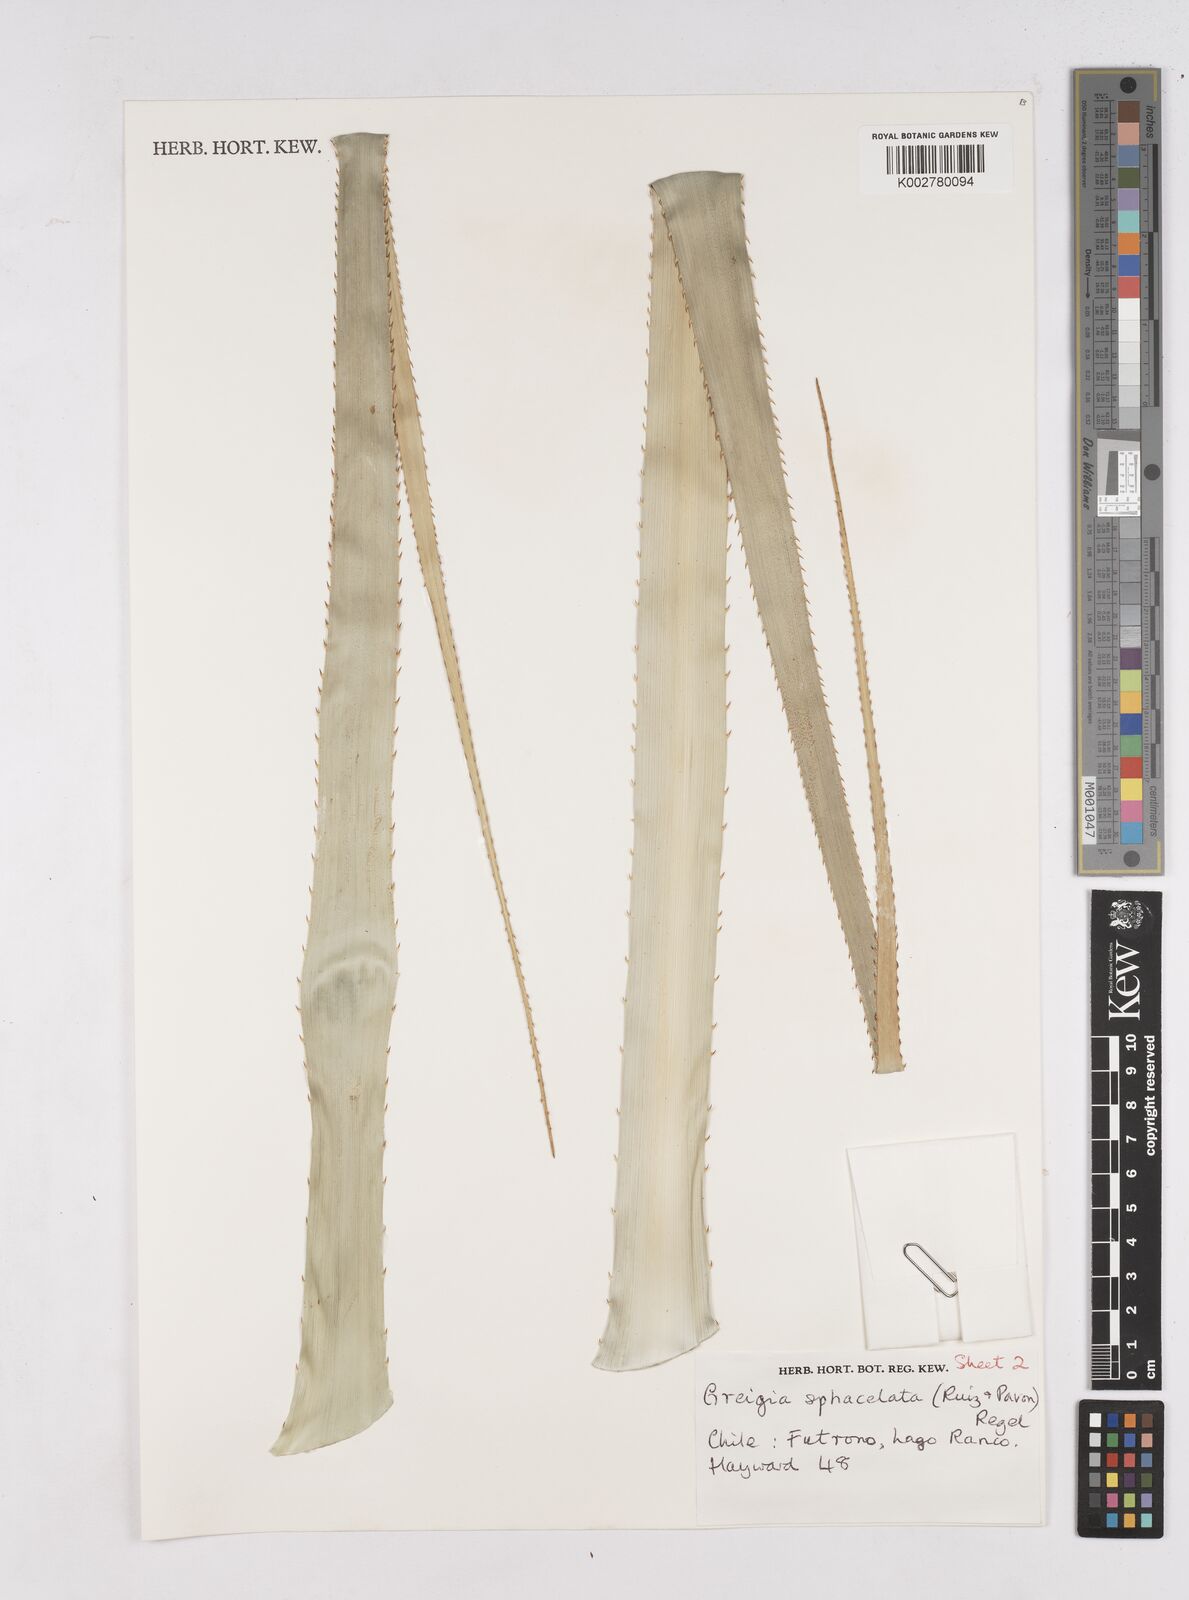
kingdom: Plantae
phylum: Tracheophyta
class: Liliopsida
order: Poales
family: Bromeliaceae
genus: Greigia
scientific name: Greigia sphacelata
